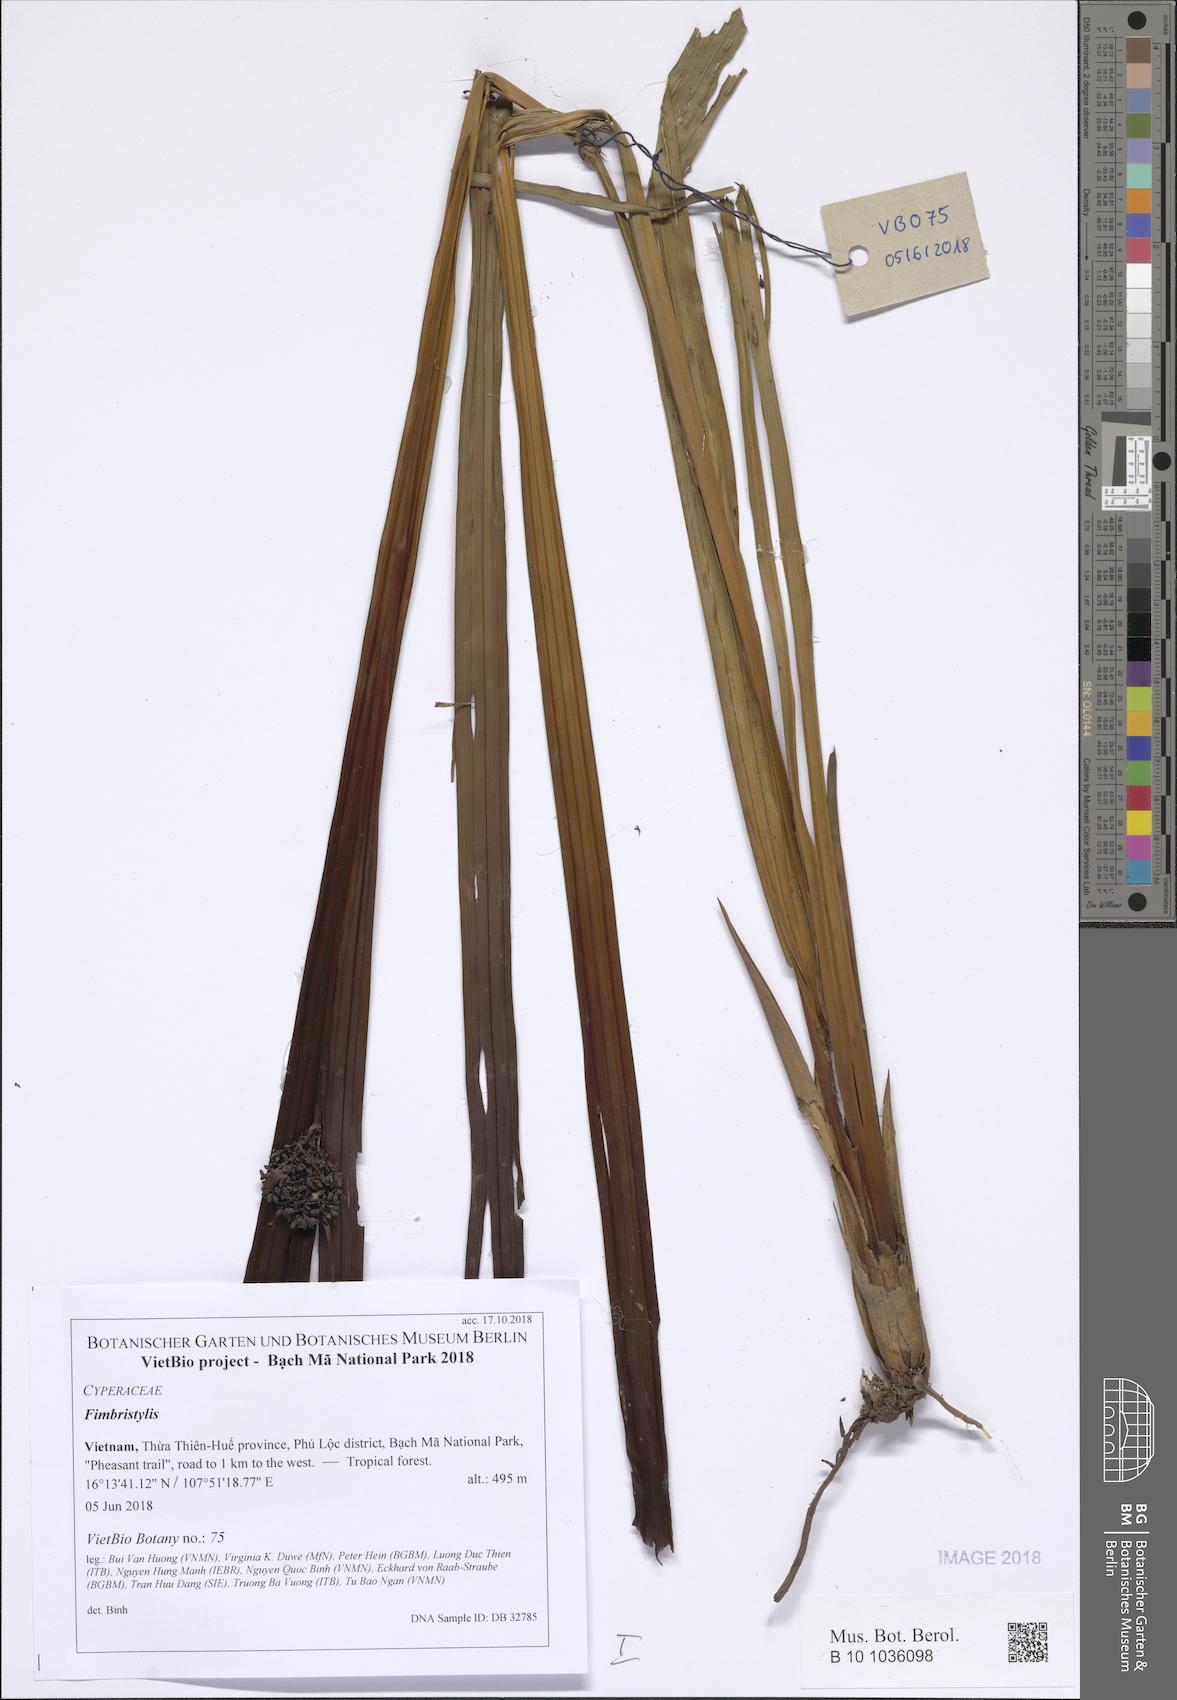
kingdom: Plantae
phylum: Tracheophyta
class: Liliopsida
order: Poales
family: Cyperaceae
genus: Fimbristylis
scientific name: Fimbristylis
